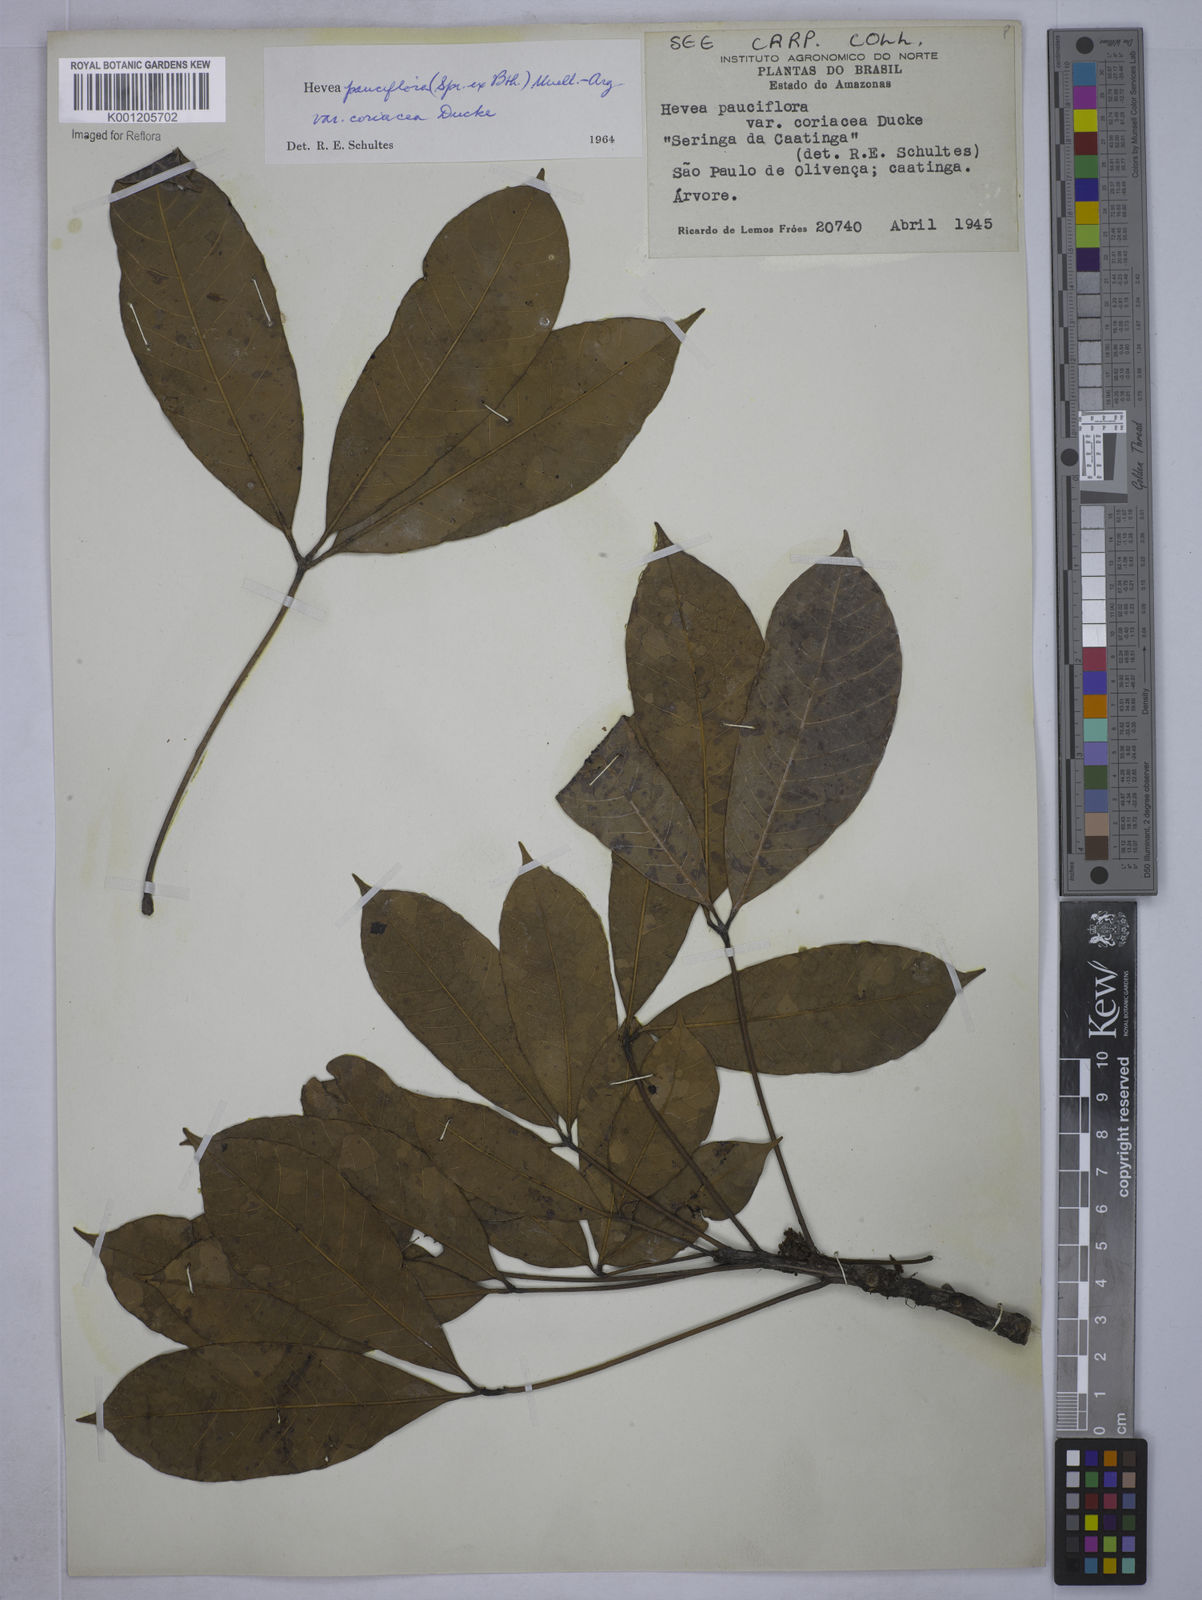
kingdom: Plantae
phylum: Tracheophyta
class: Magnoliopsida
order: Malpighiales
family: Euphorbiaceae
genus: Hevea
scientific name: Hevea pauciflora
